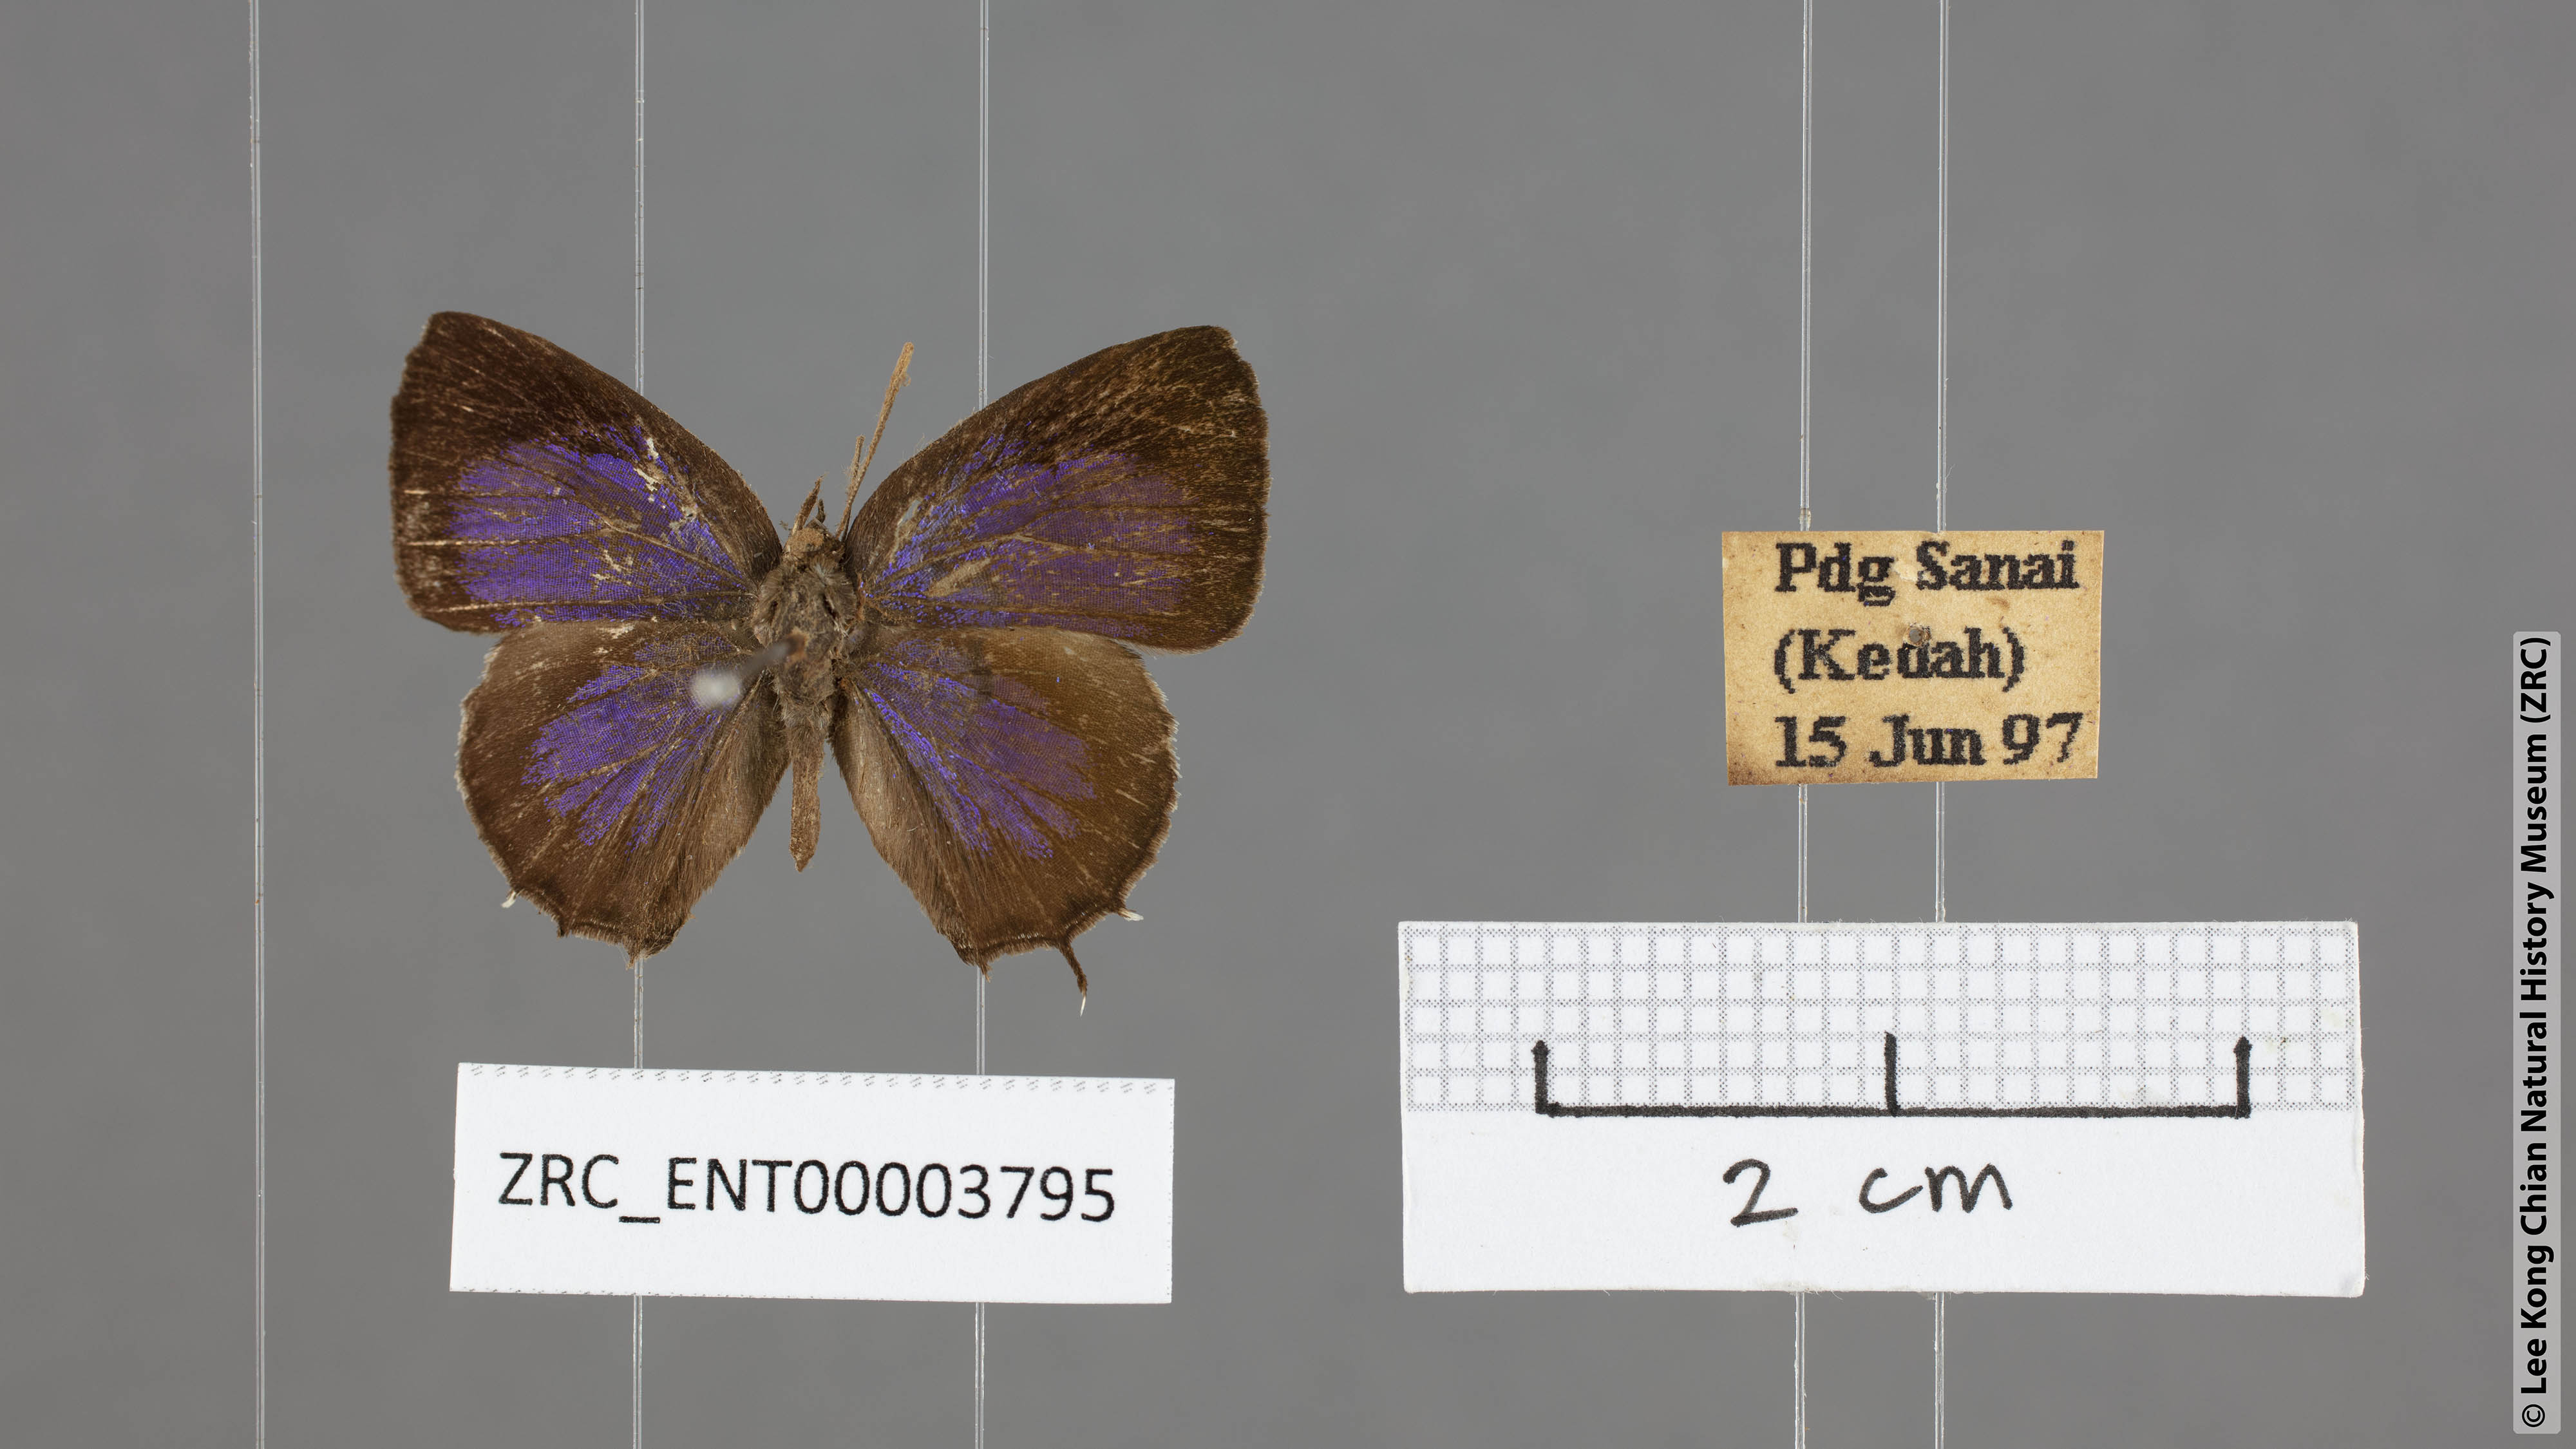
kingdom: Animalia
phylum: Arthropoda
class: Insecta
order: Lepidoptera
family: Lycaenidae
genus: Arhopala
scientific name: Arhopala abseus
